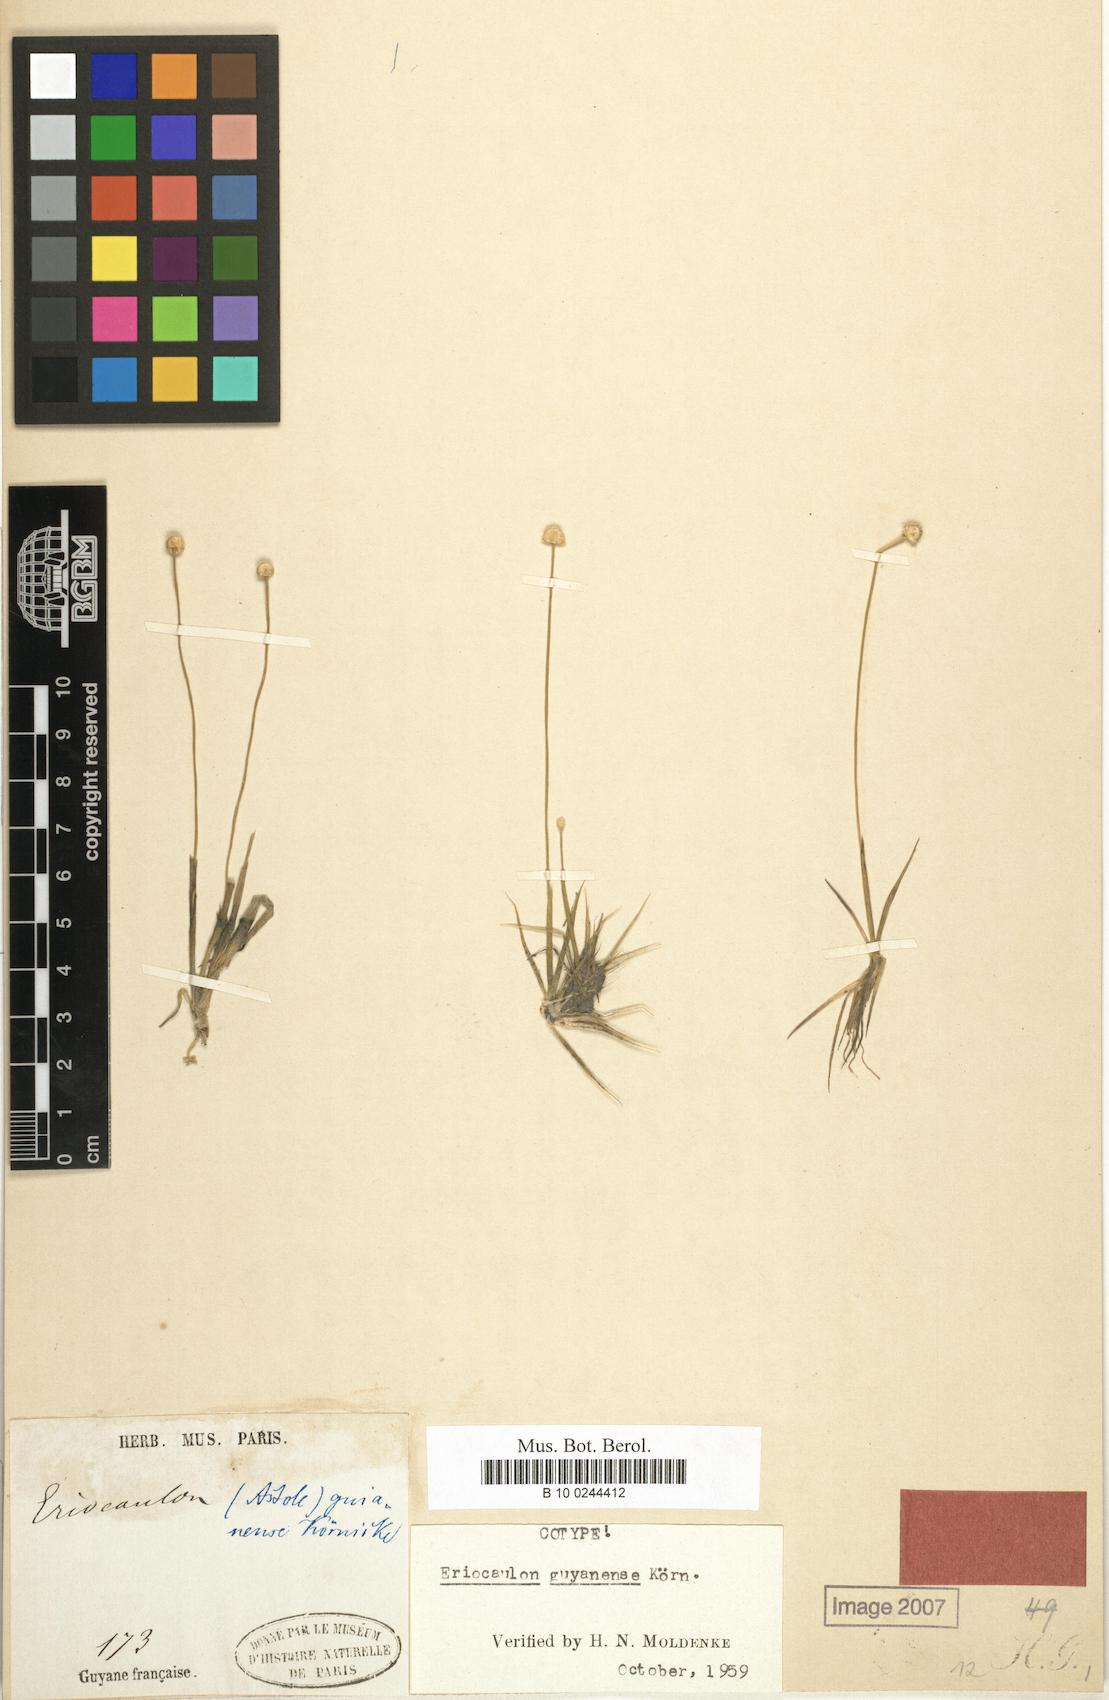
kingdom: Plantae
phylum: Tracheophyta
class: Liliopsida
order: Poales
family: Eriocaulaceae
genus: Eriocaulon
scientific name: Eriocaulon guyanense
